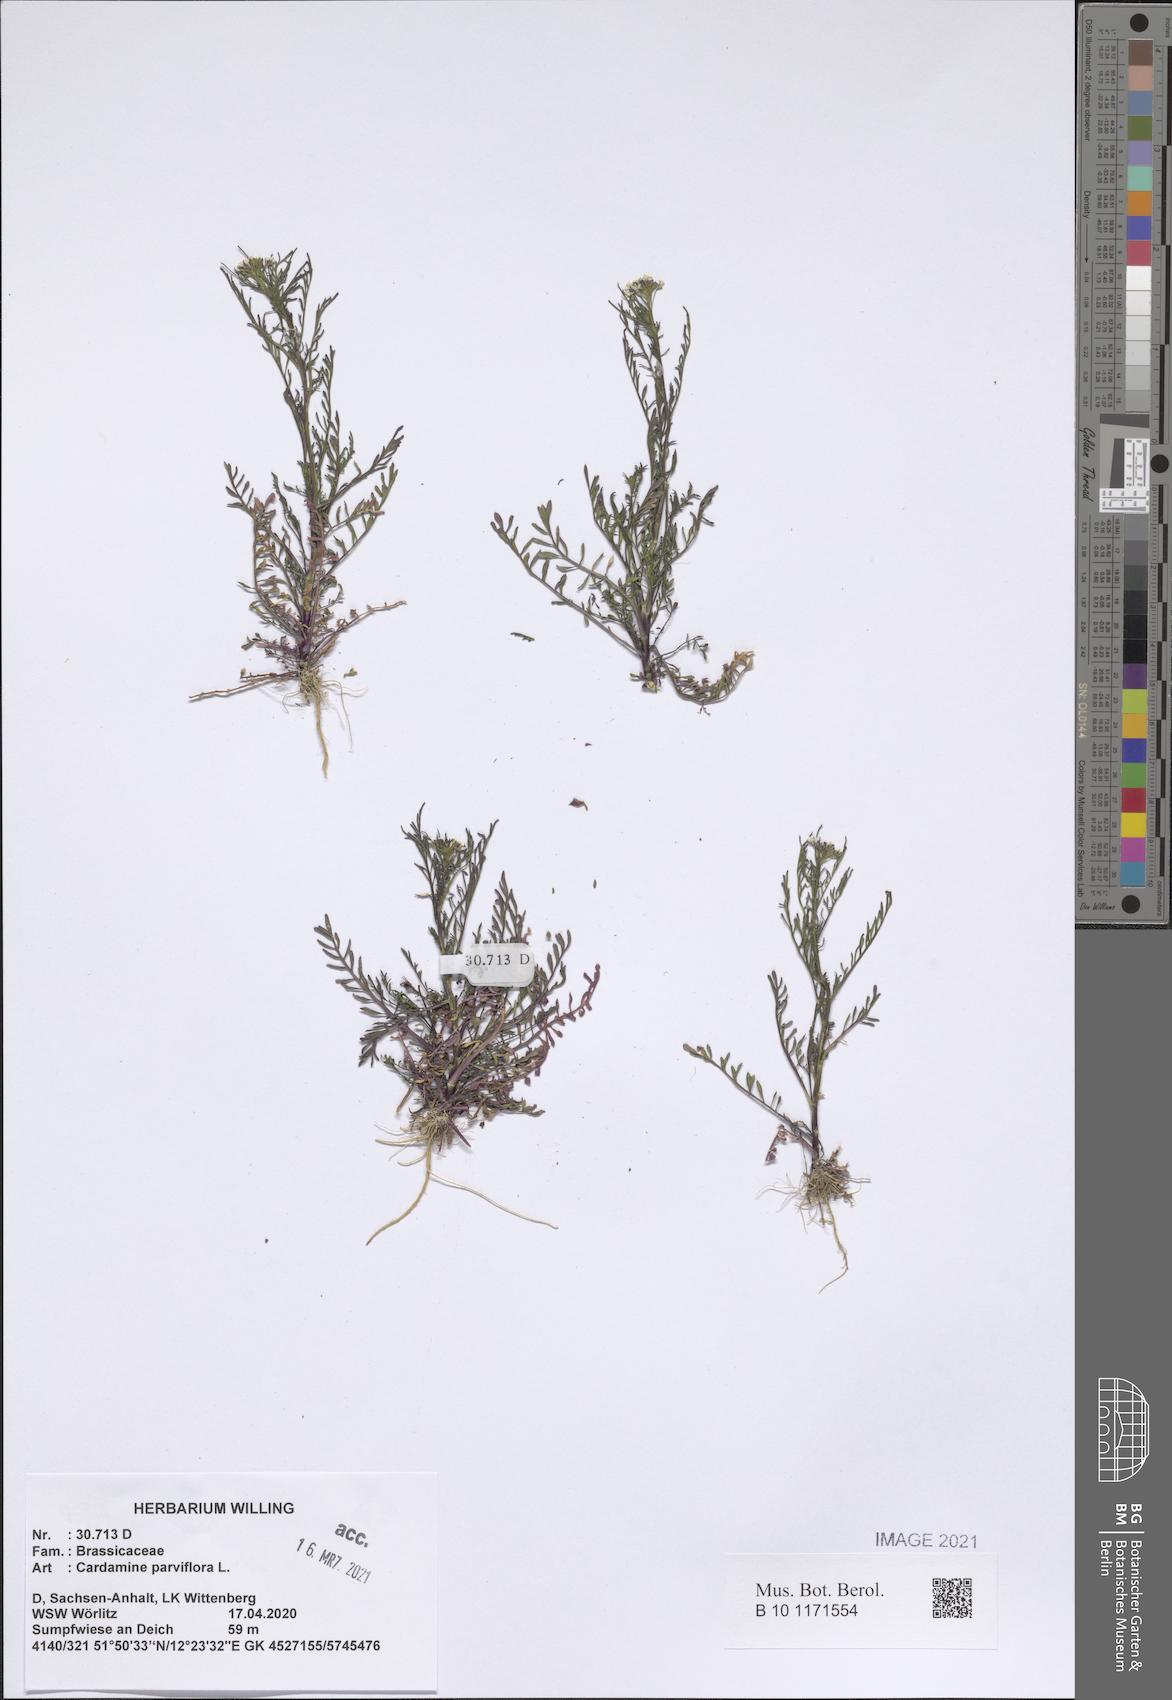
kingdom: Plantae
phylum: Tracheophyta
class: Magnoliopsida
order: Brassicales
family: Brassicaceae
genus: Cardamine
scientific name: Cardamine parviflora
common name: Sand bittercress
